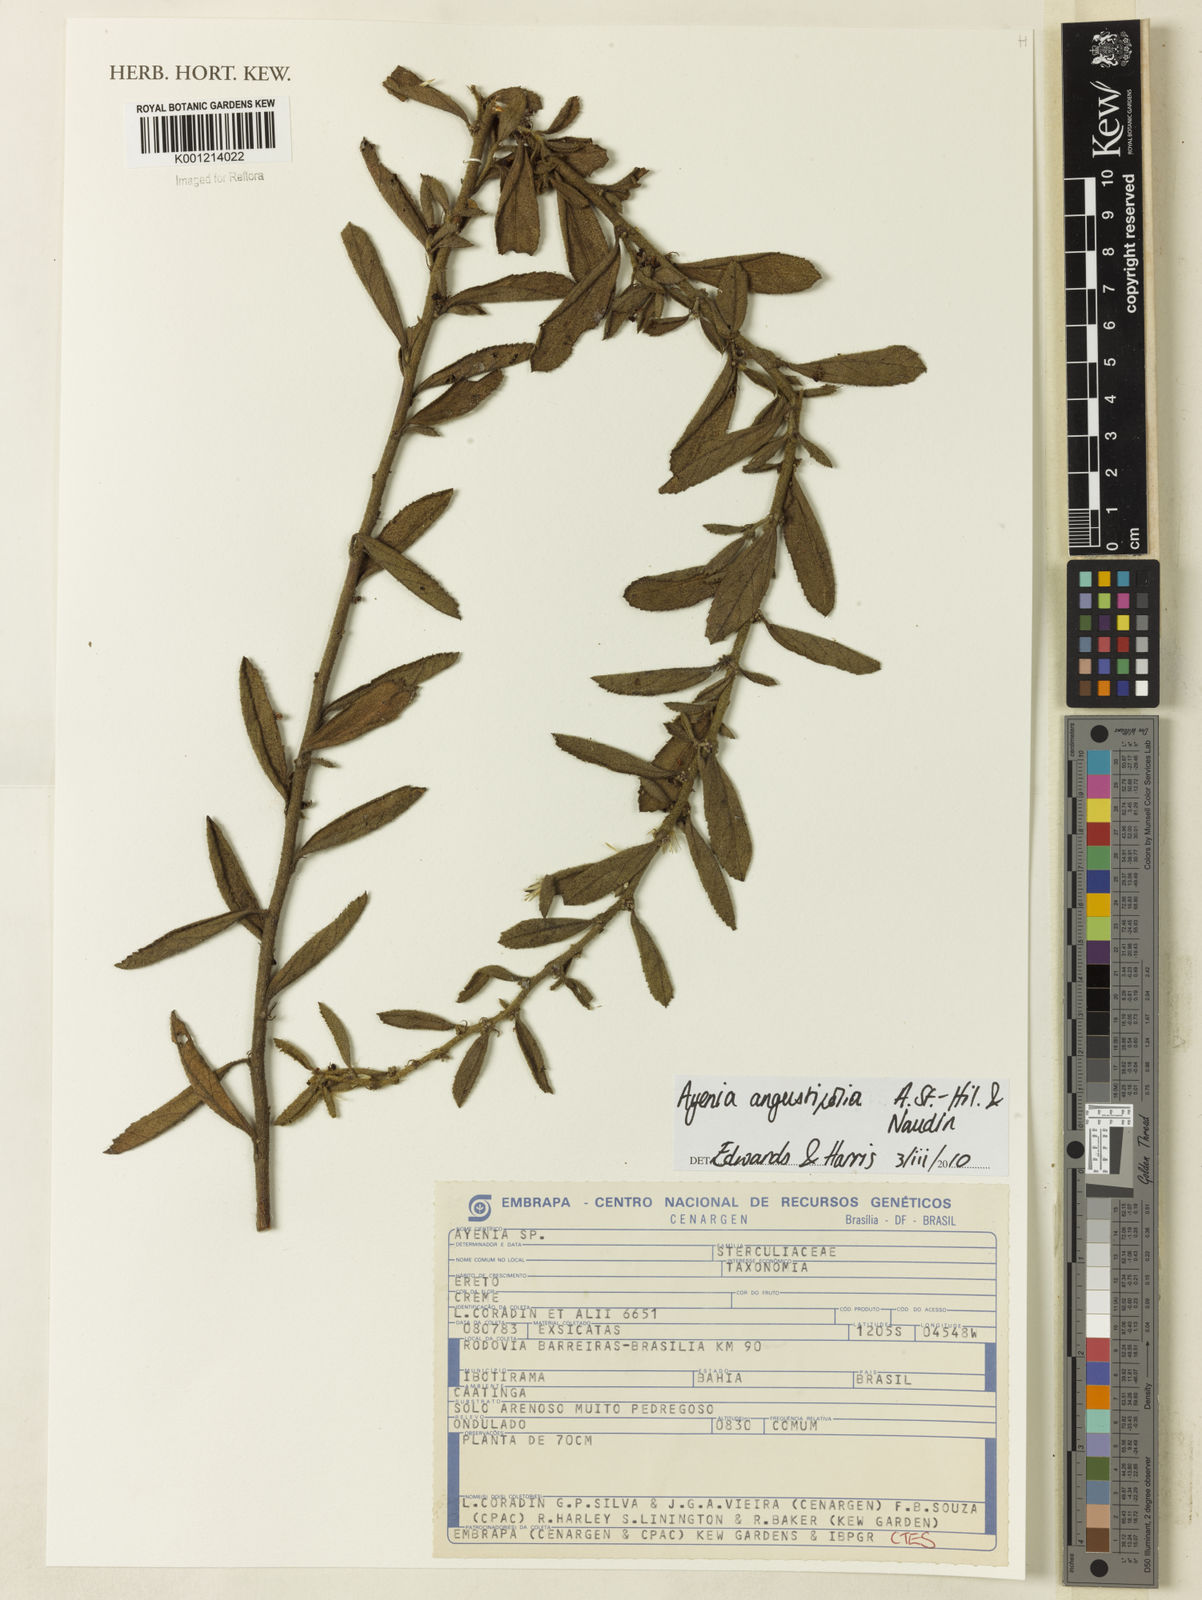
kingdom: Plantae
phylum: Tracheophyta
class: Magnoliopsida
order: Malvales
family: Malvaceae
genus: Ayenia
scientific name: Ayenia angustifolia
